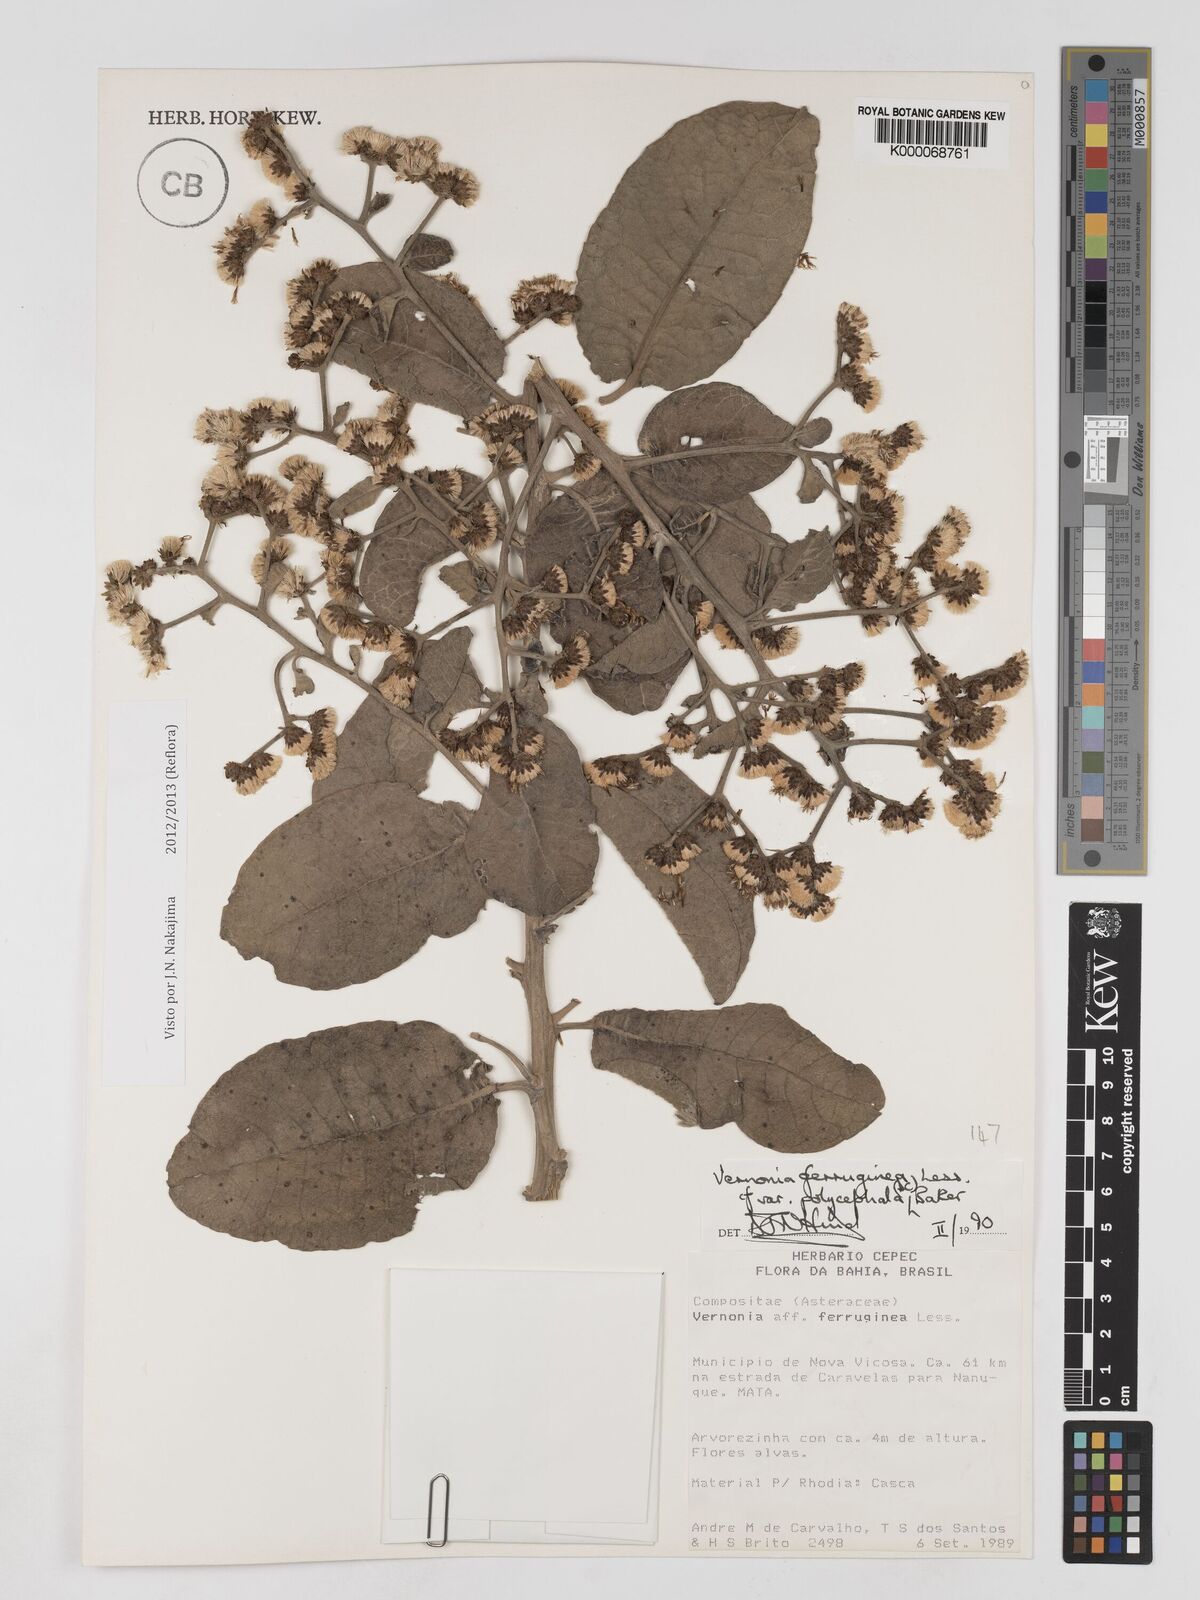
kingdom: Plantae
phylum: Tracheophyta
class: Magnoliopsida
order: Asterales
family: Asteraceae
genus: Vernonanthura
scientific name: Vernonanthura ferruginea
